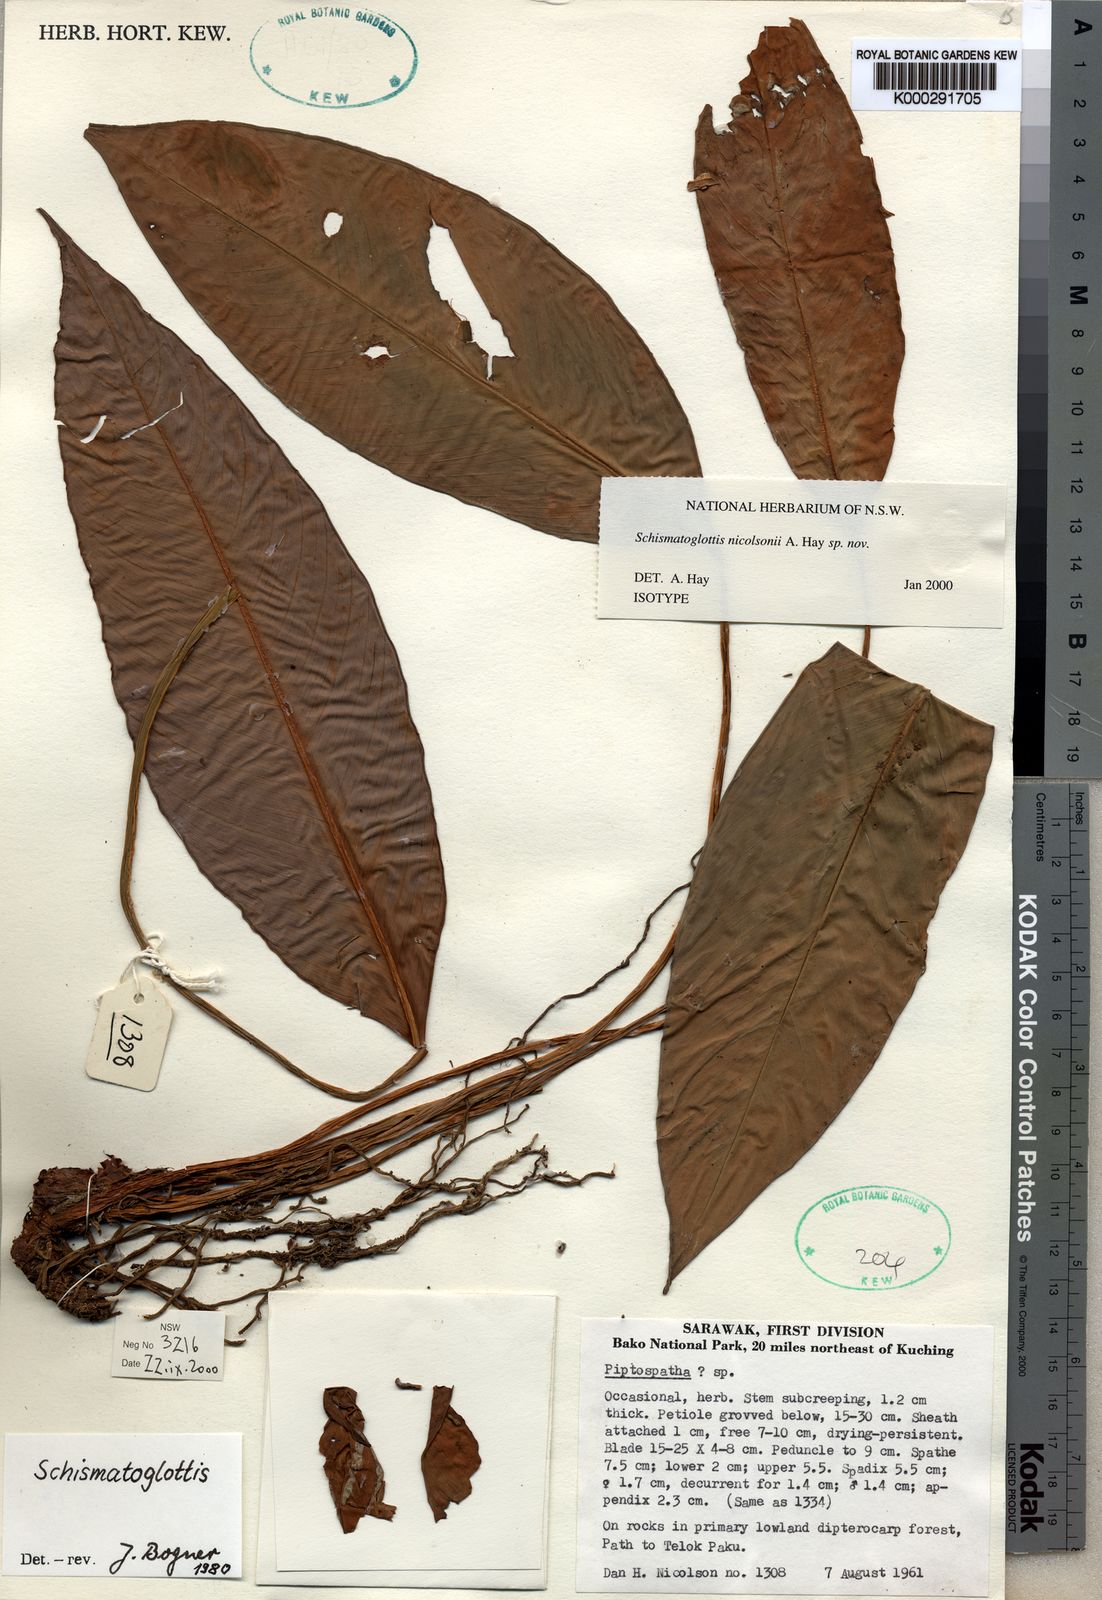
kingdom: Plantae
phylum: Tracheophyta
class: Liliopsida
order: Alismatales
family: Araceae
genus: Schismatoglottis
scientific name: Schismatoglottis nicolsonii
